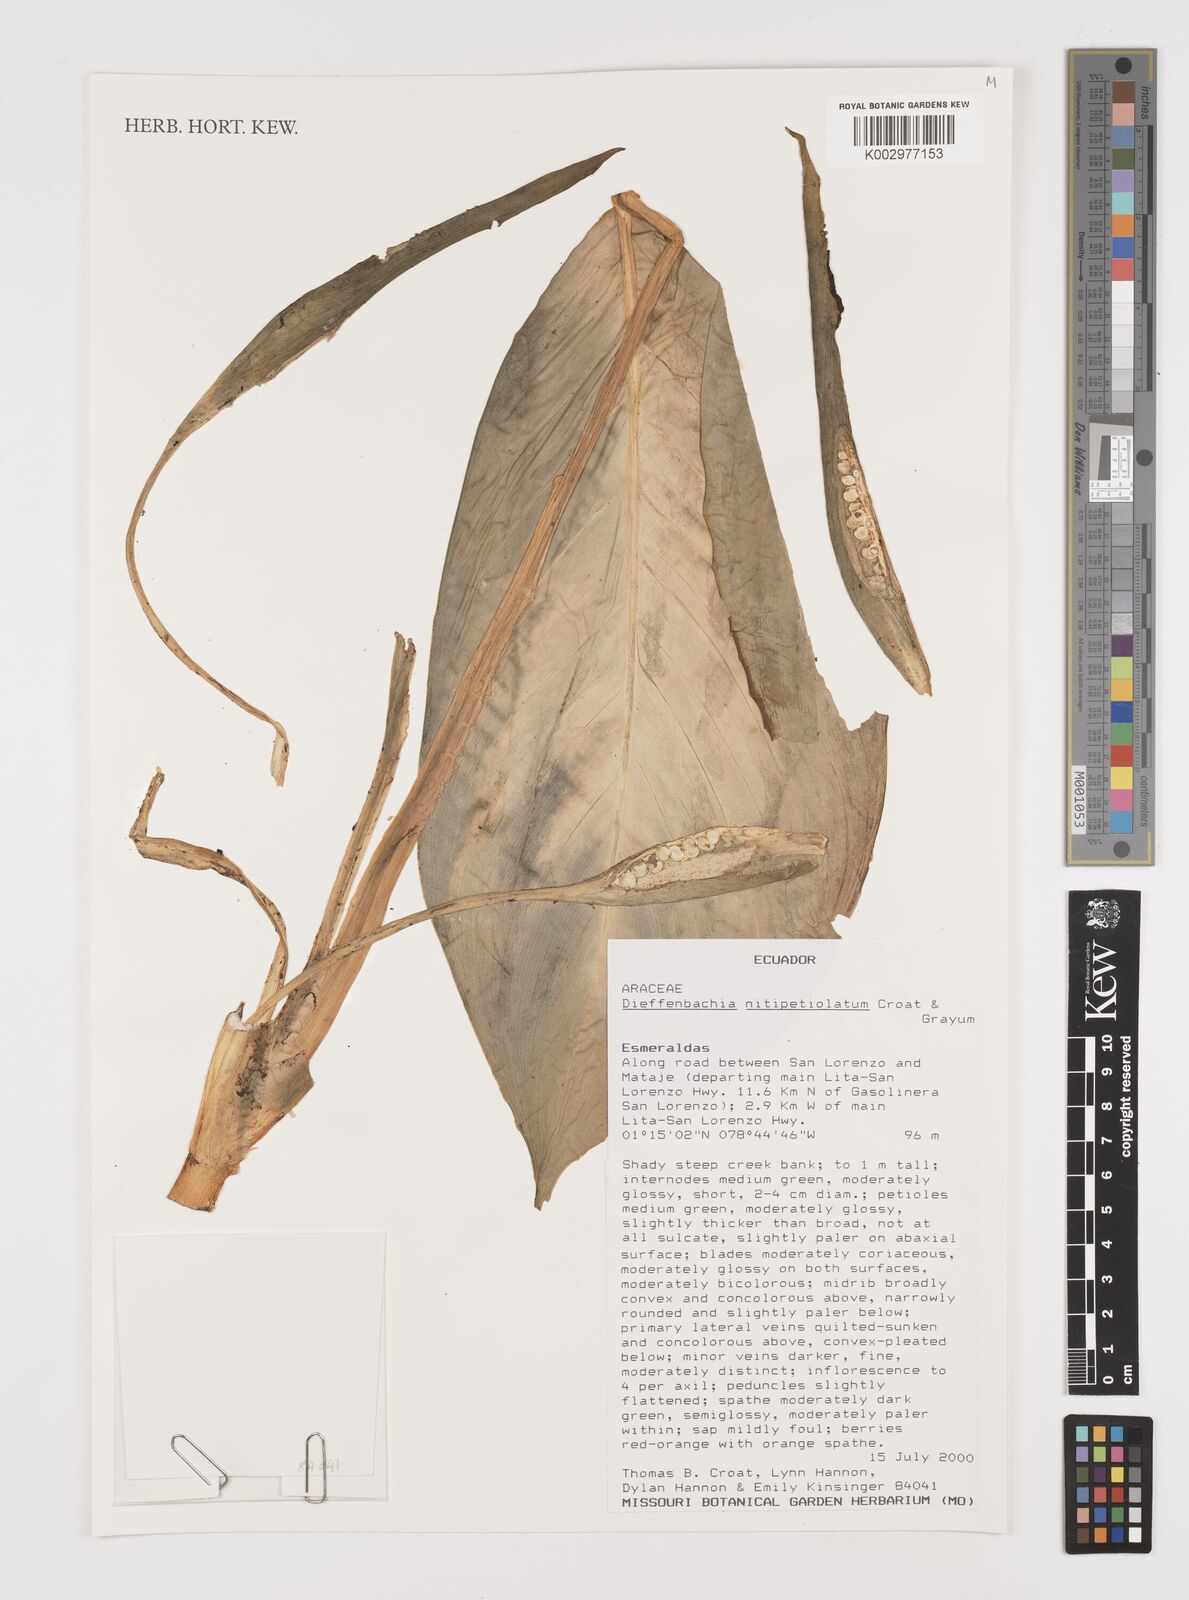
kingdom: Plantae
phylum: Tracheophyta
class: Liliopsida
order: Alismatales
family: Araceae
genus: Dieffenbachia
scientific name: Dieffenbachia nitidipetiolata
